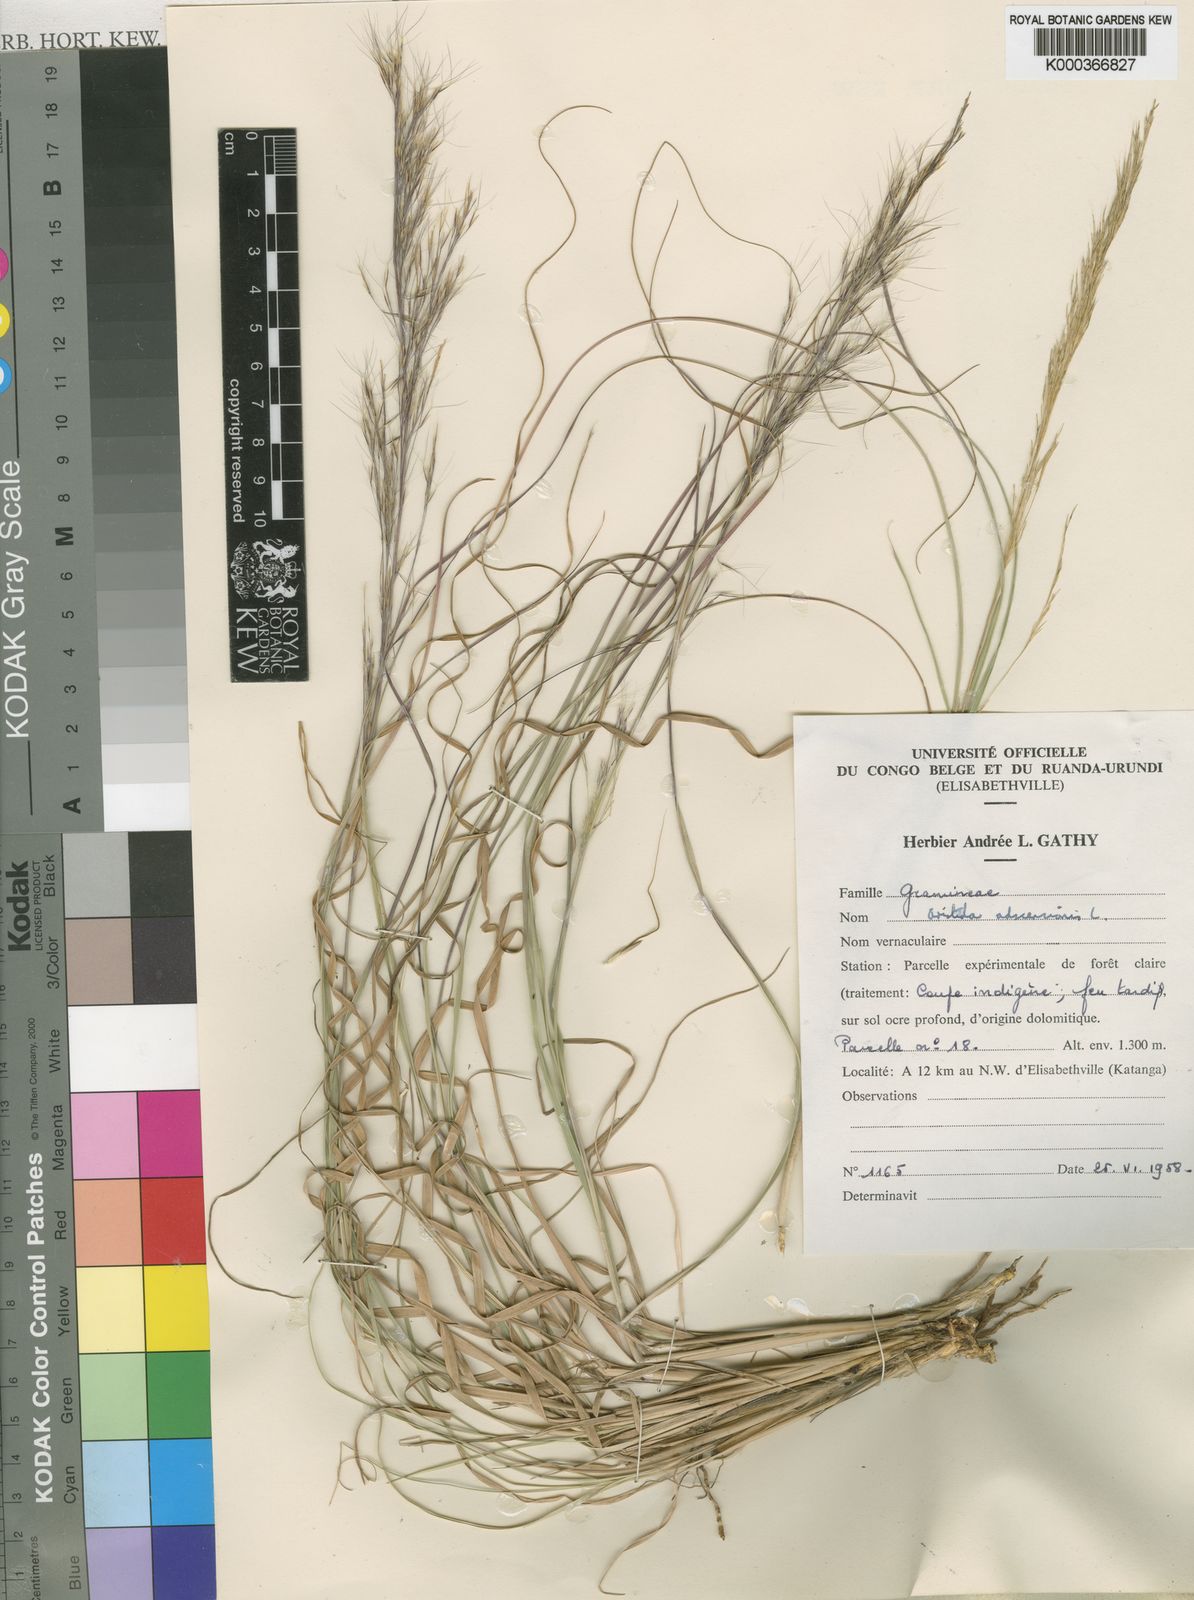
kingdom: Plantae
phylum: Tracheophyta
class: Liliopsida
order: Poales
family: Poaceae
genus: Aristida
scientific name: Aristida aemulans
